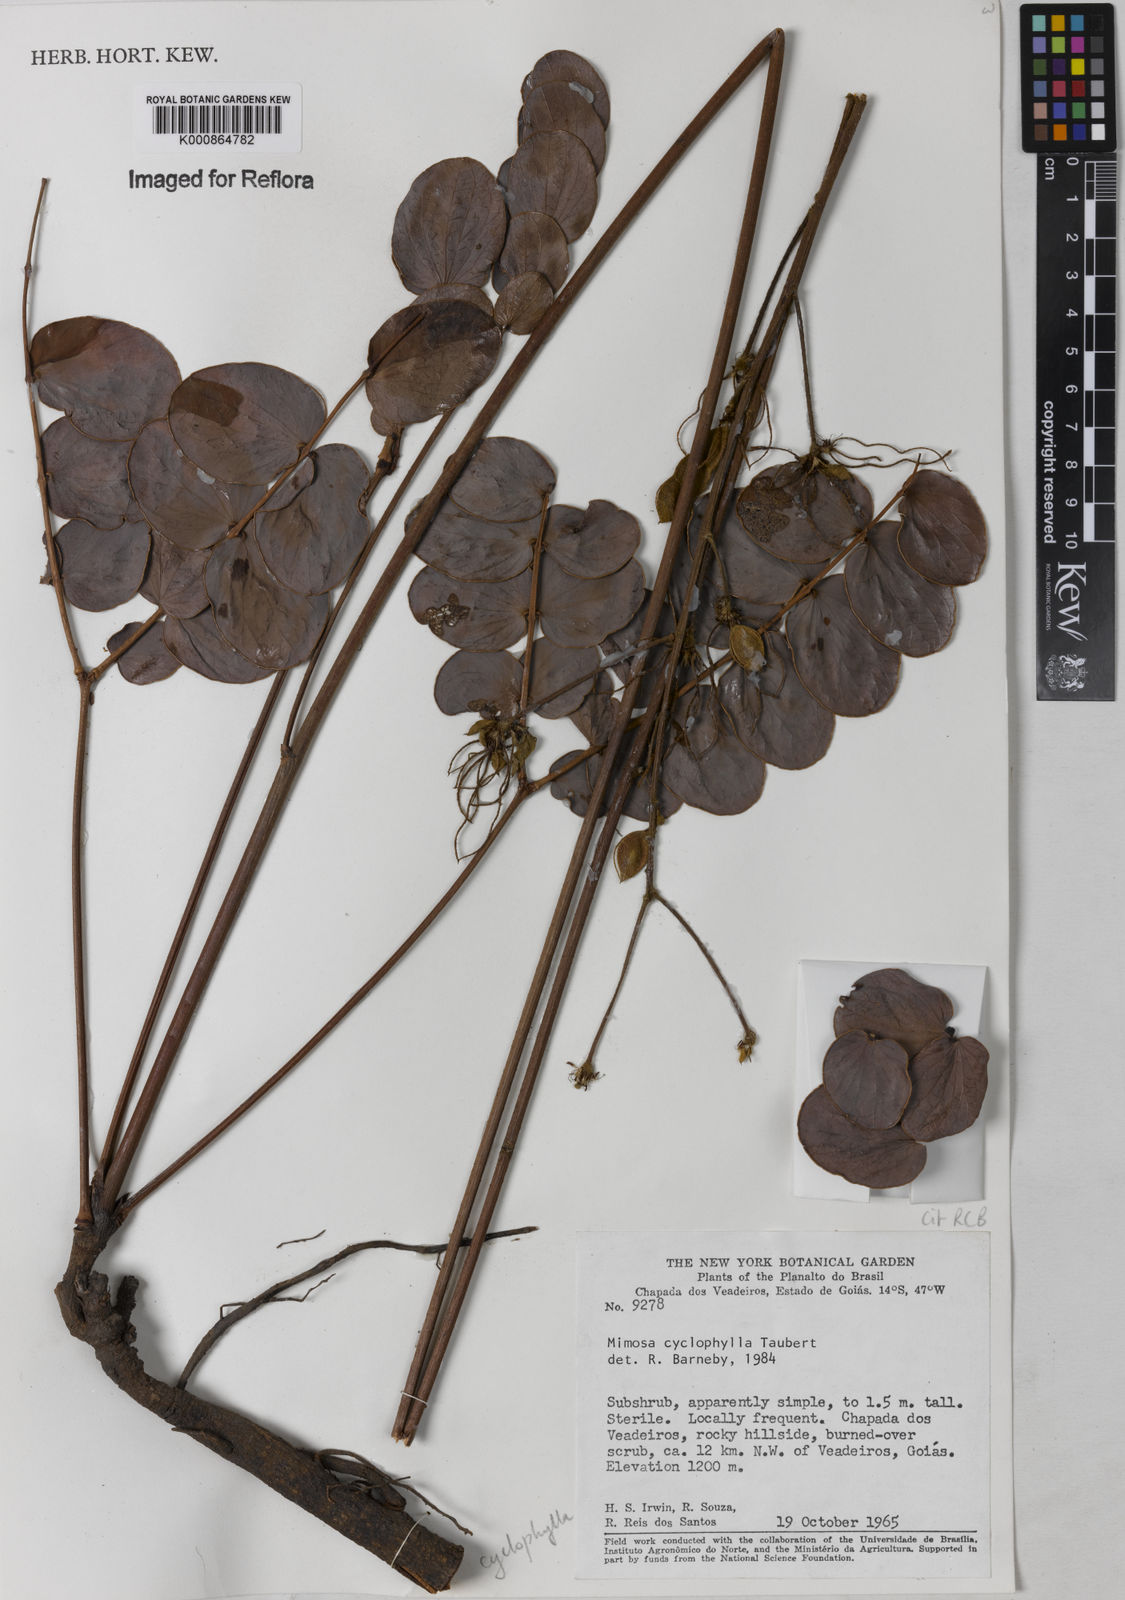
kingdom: Plantae
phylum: Tracheophyta
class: Magnoliopsida
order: Fabales
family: Fabaceae
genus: Mimosa
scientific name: Mimosa cyclophylla
